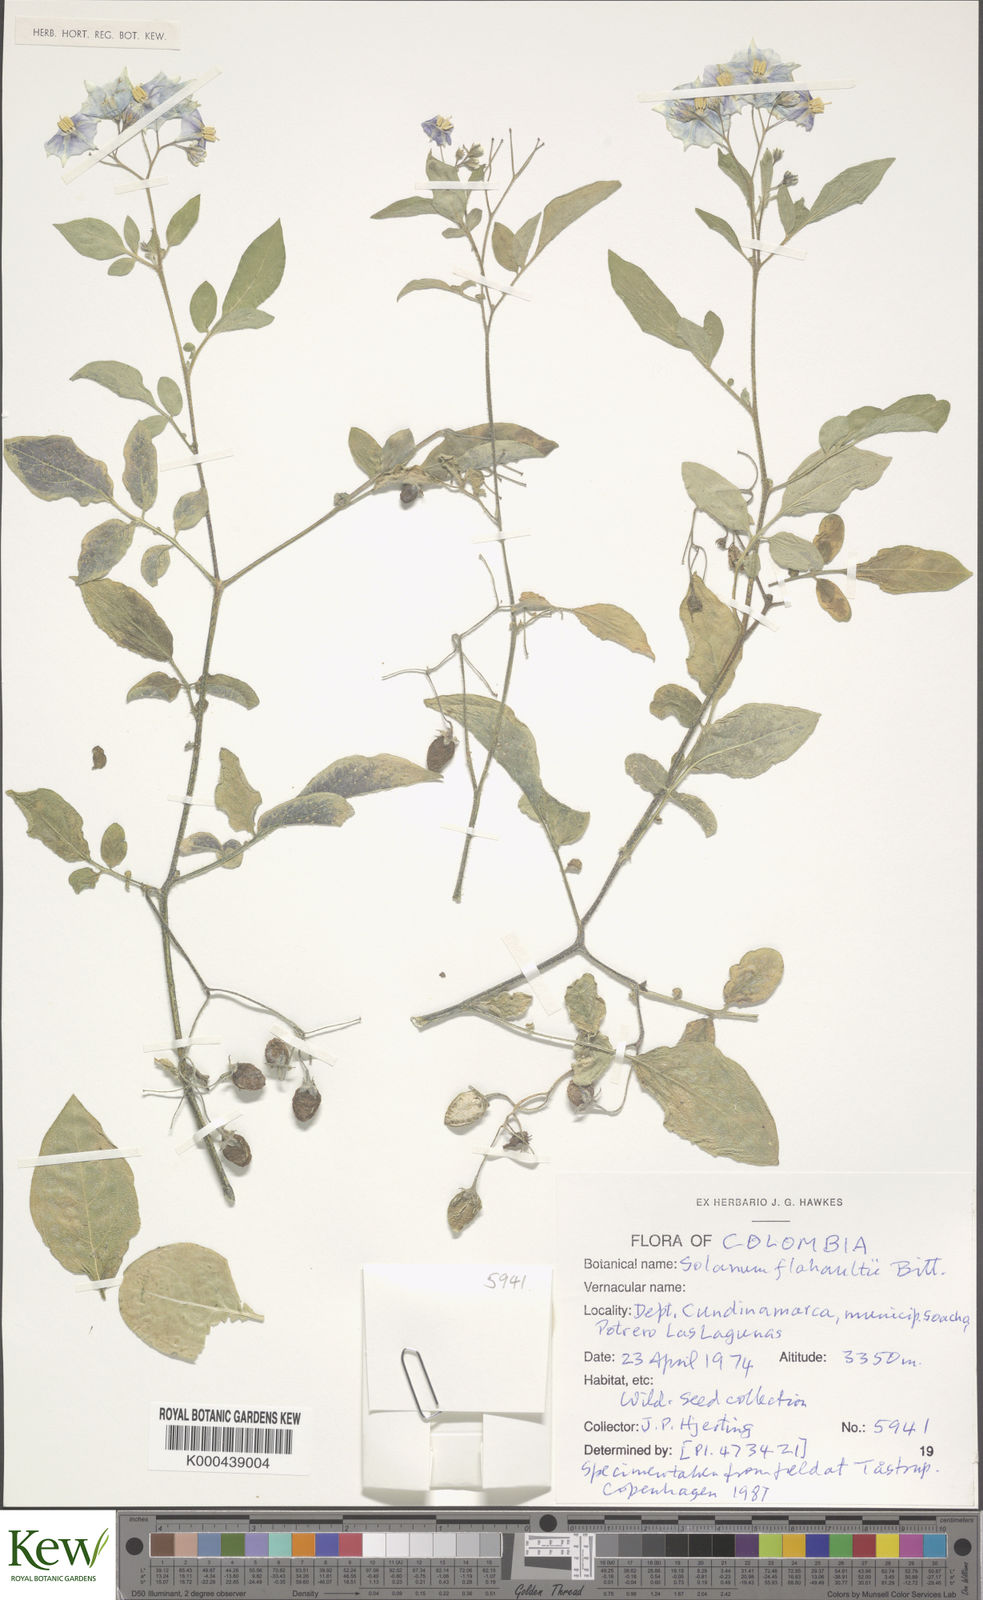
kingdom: Plantae
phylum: Tracheophyta
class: Magnoliopsida
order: Solanales
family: Solanaceae
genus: Solanum
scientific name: Solanum flahaultii
